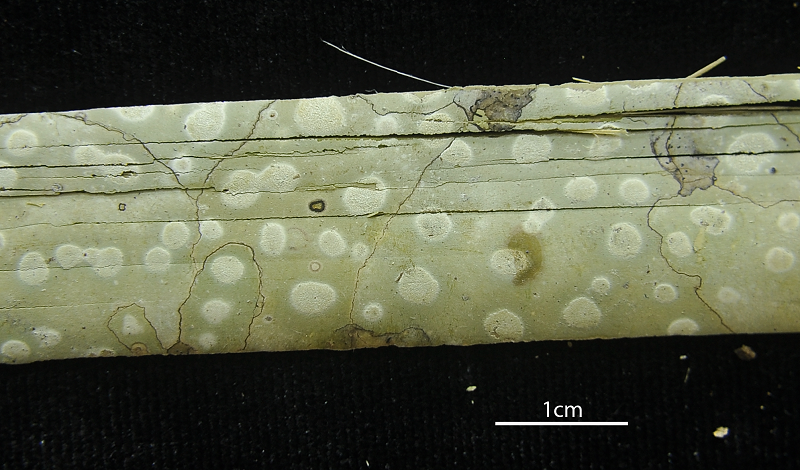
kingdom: Fungi
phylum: Ascomycota
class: Arthoniomycetes
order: Arthoniales
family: Arthoniaceae
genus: Myriostigma
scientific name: Myriostigma candidum
